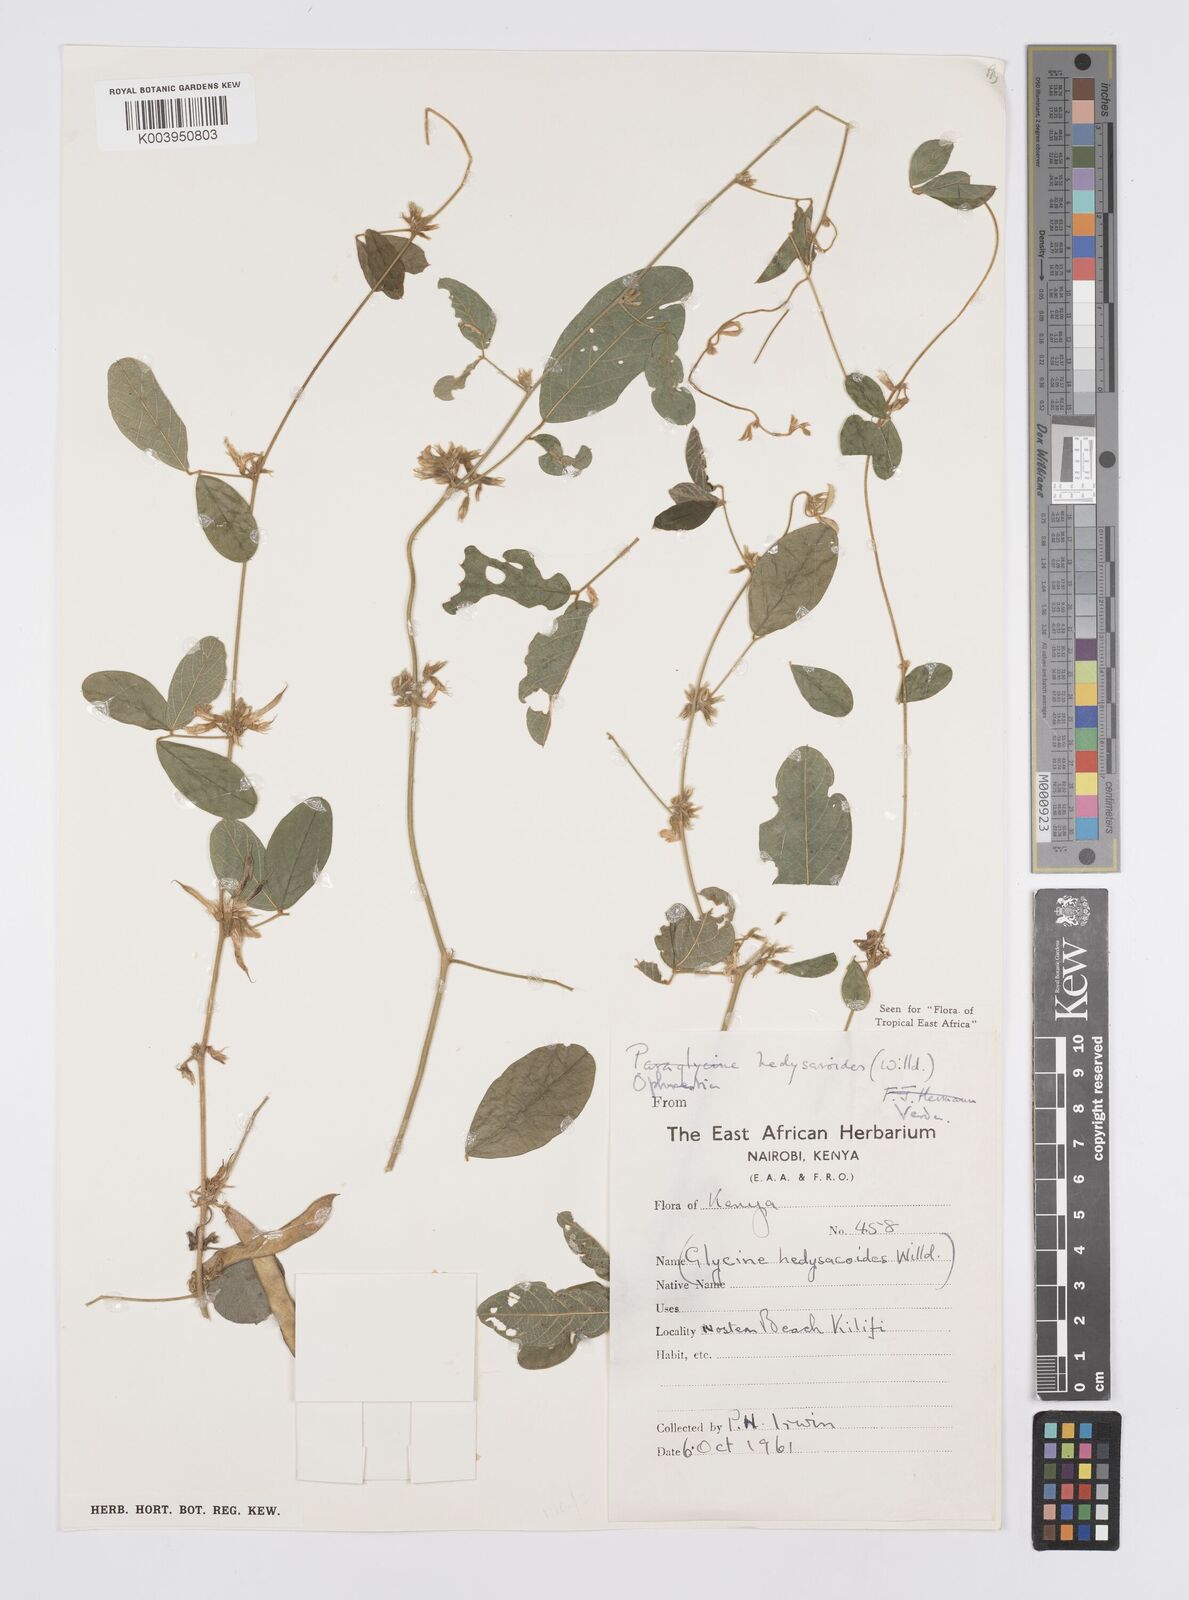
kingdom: Plantae
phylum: Tracheophyta
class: Magnoliopsida
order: Fabales
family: Fabaceae
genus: Ophrestia
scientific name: Ophrestia hedysaroides
